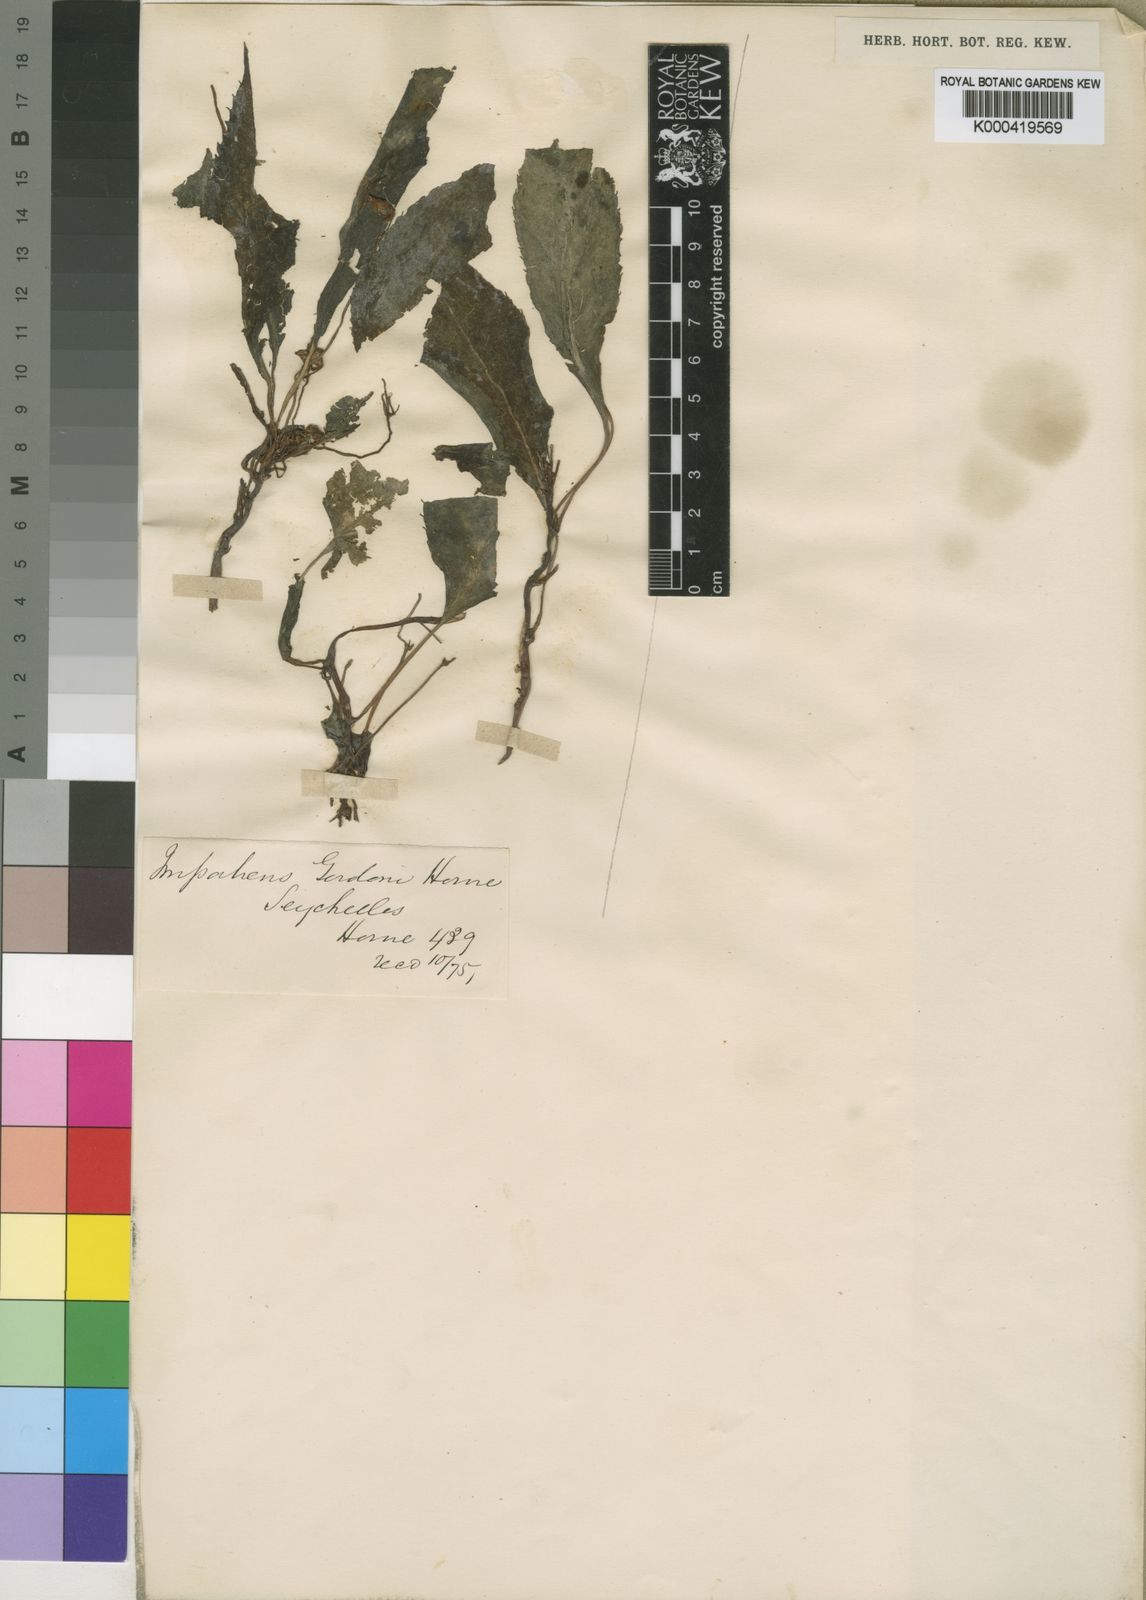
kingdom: Plantae
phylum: Tracheophyta
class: Magnoliopsida
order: Ericales
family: Balsaminaceae
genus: Impatiens
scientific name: Impatiens
